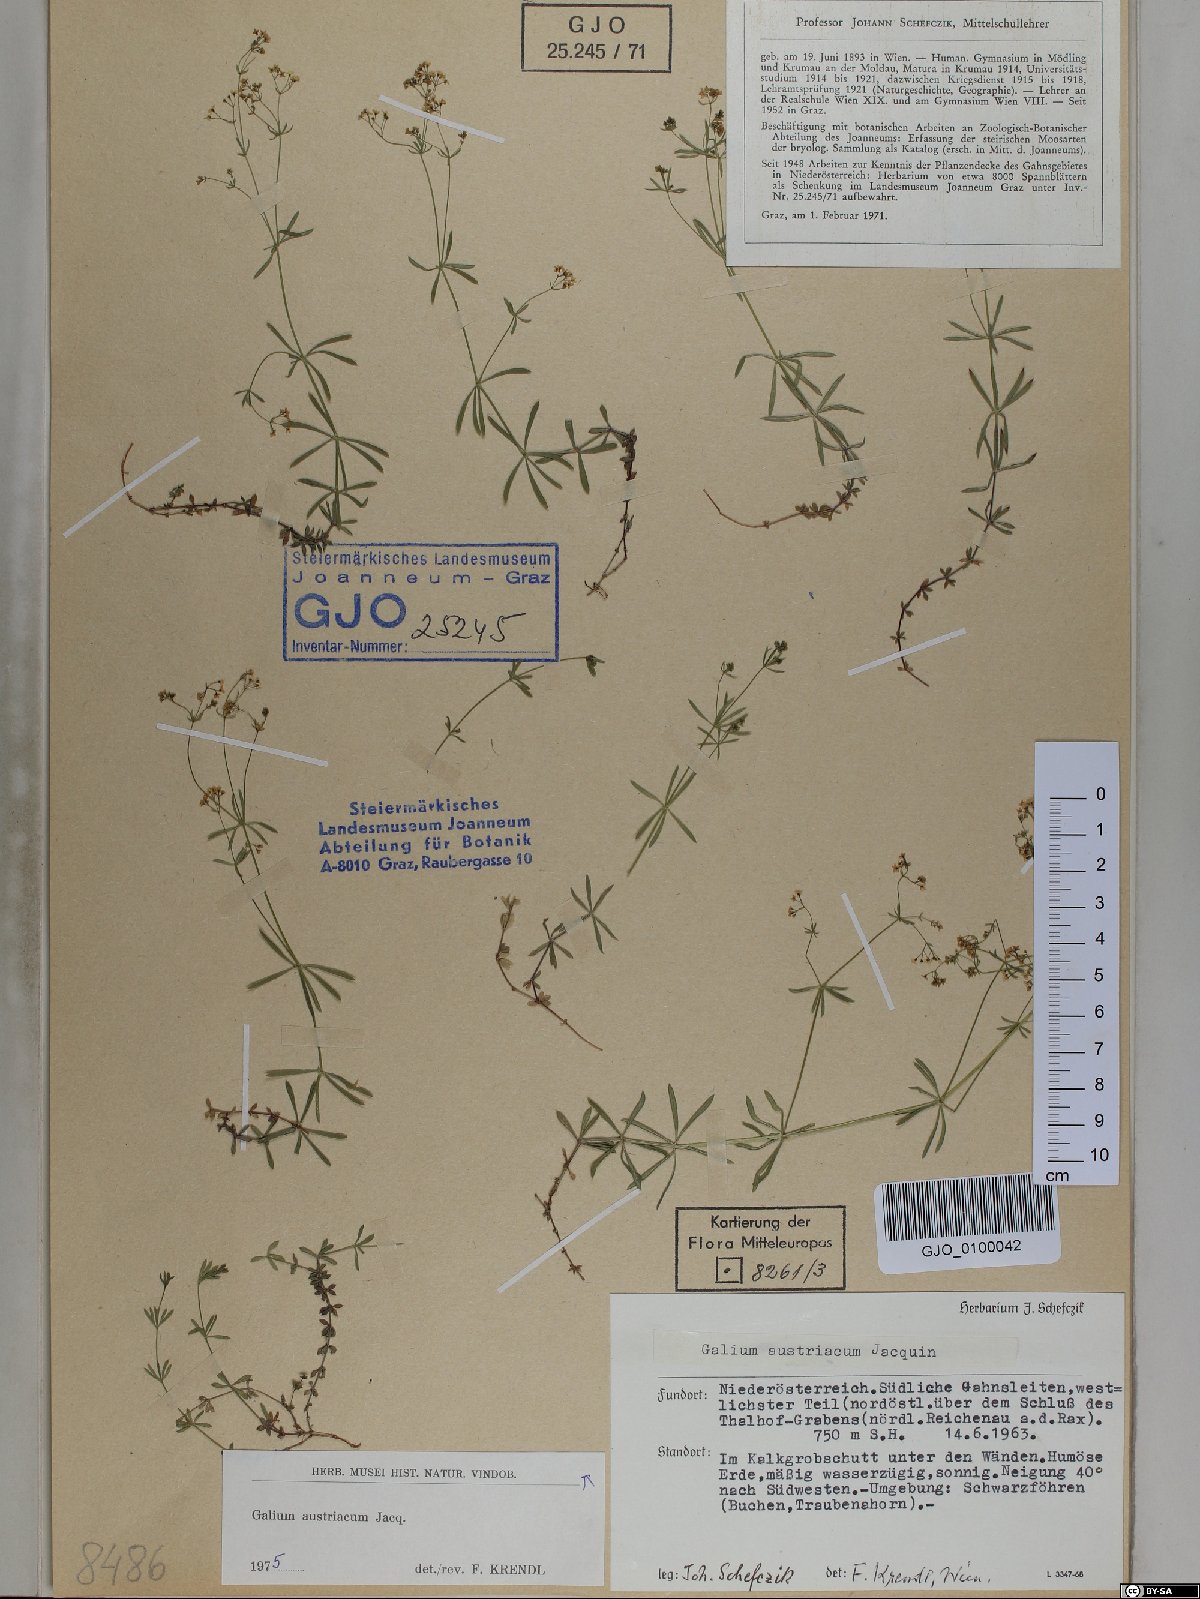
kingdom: Plantae
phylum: Tracheophyta
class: Magnoliopsida
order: Gentianales
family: Rubiaceae
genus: Galium
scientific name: Galium austriacum
